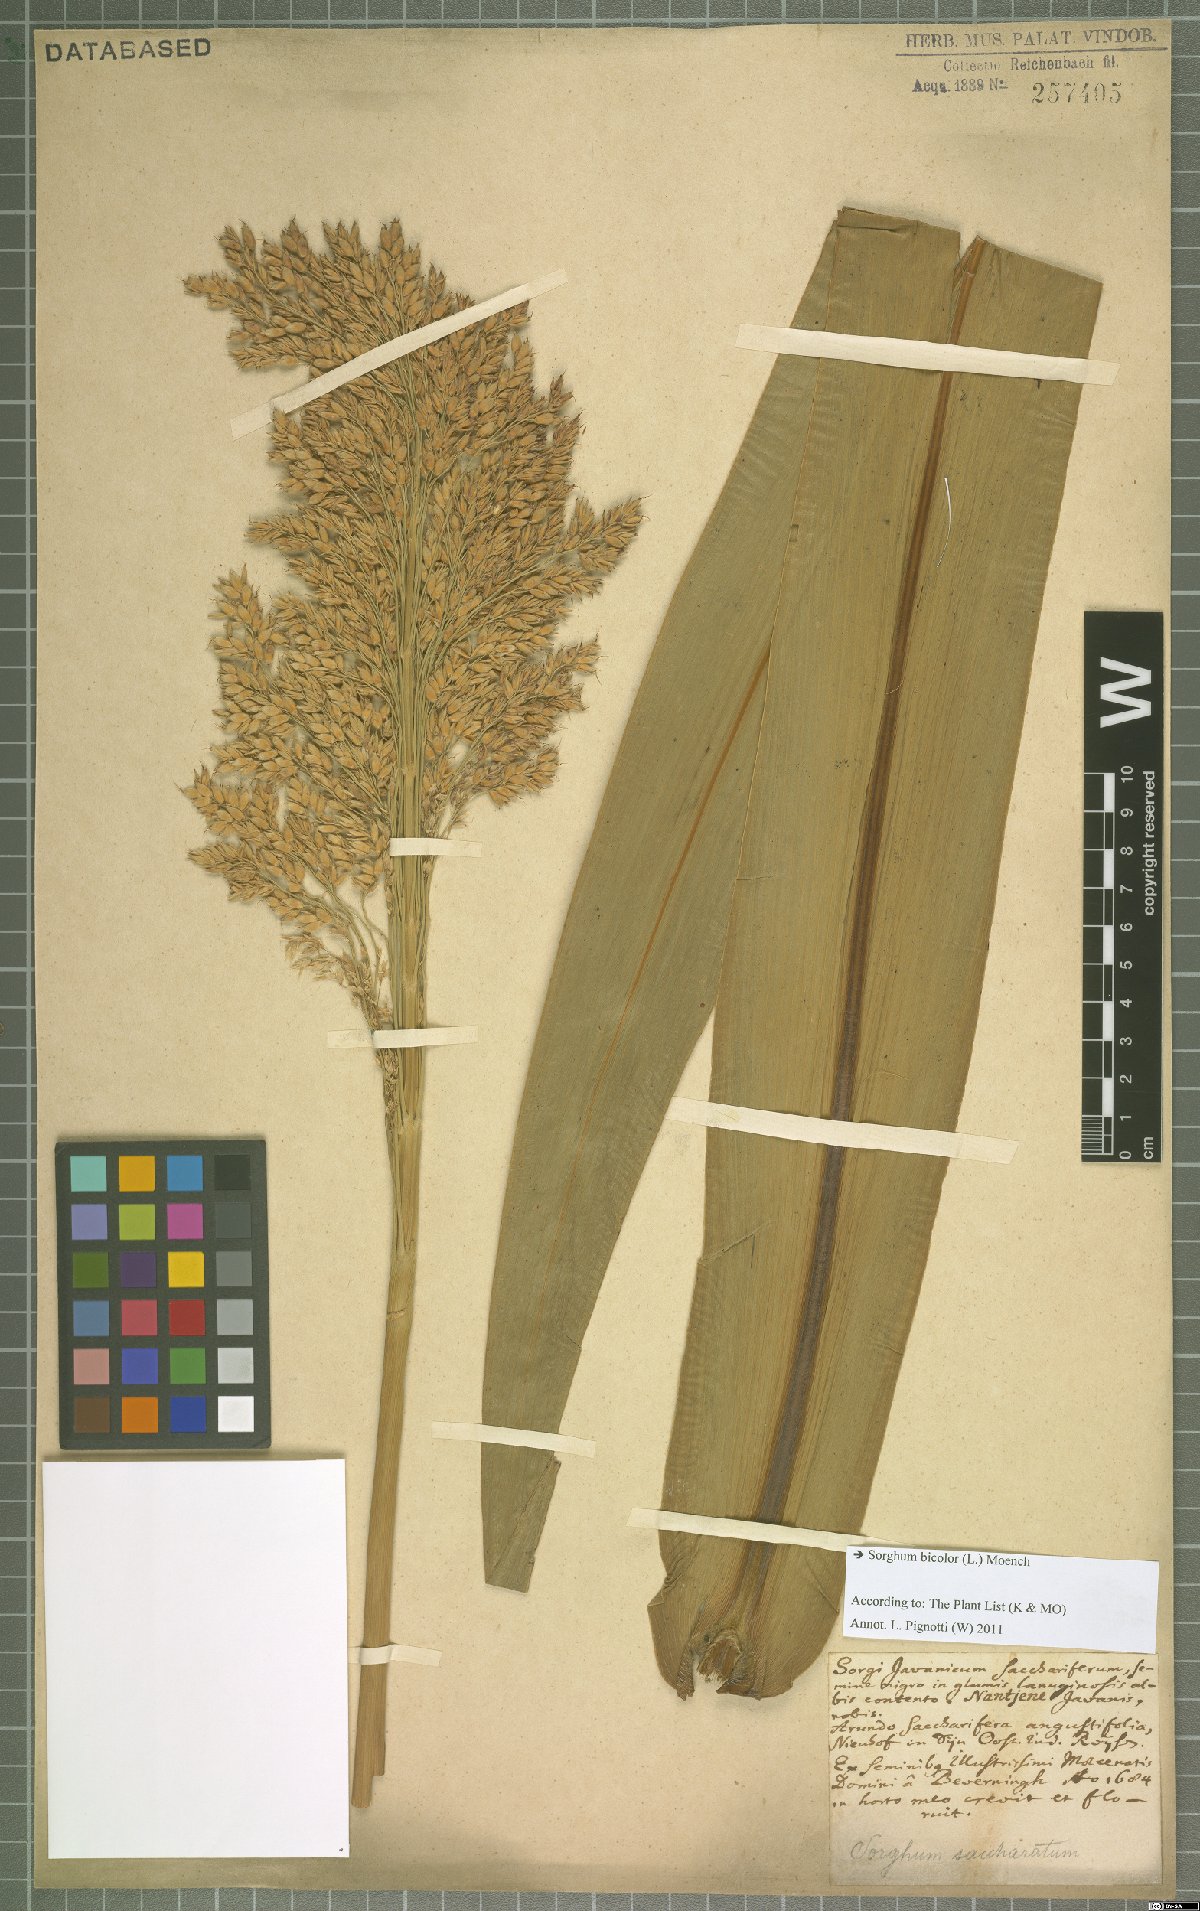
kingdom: Plantae
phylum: Tracheophyta
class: Liliopsida
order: Poales
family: Poaceae
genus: Sorghum
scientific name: Sorghum bicolor
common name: Sorghum
